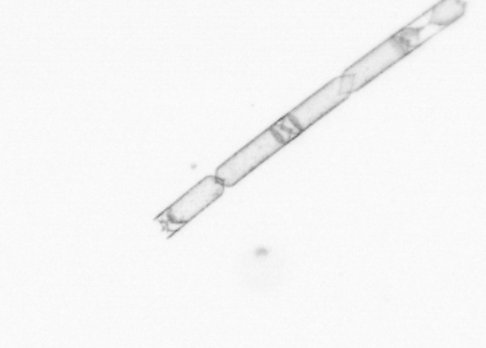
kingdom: Chromista
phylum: Ochrophyta
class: Bacillariophyceae
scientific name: Bacillariophyceae
